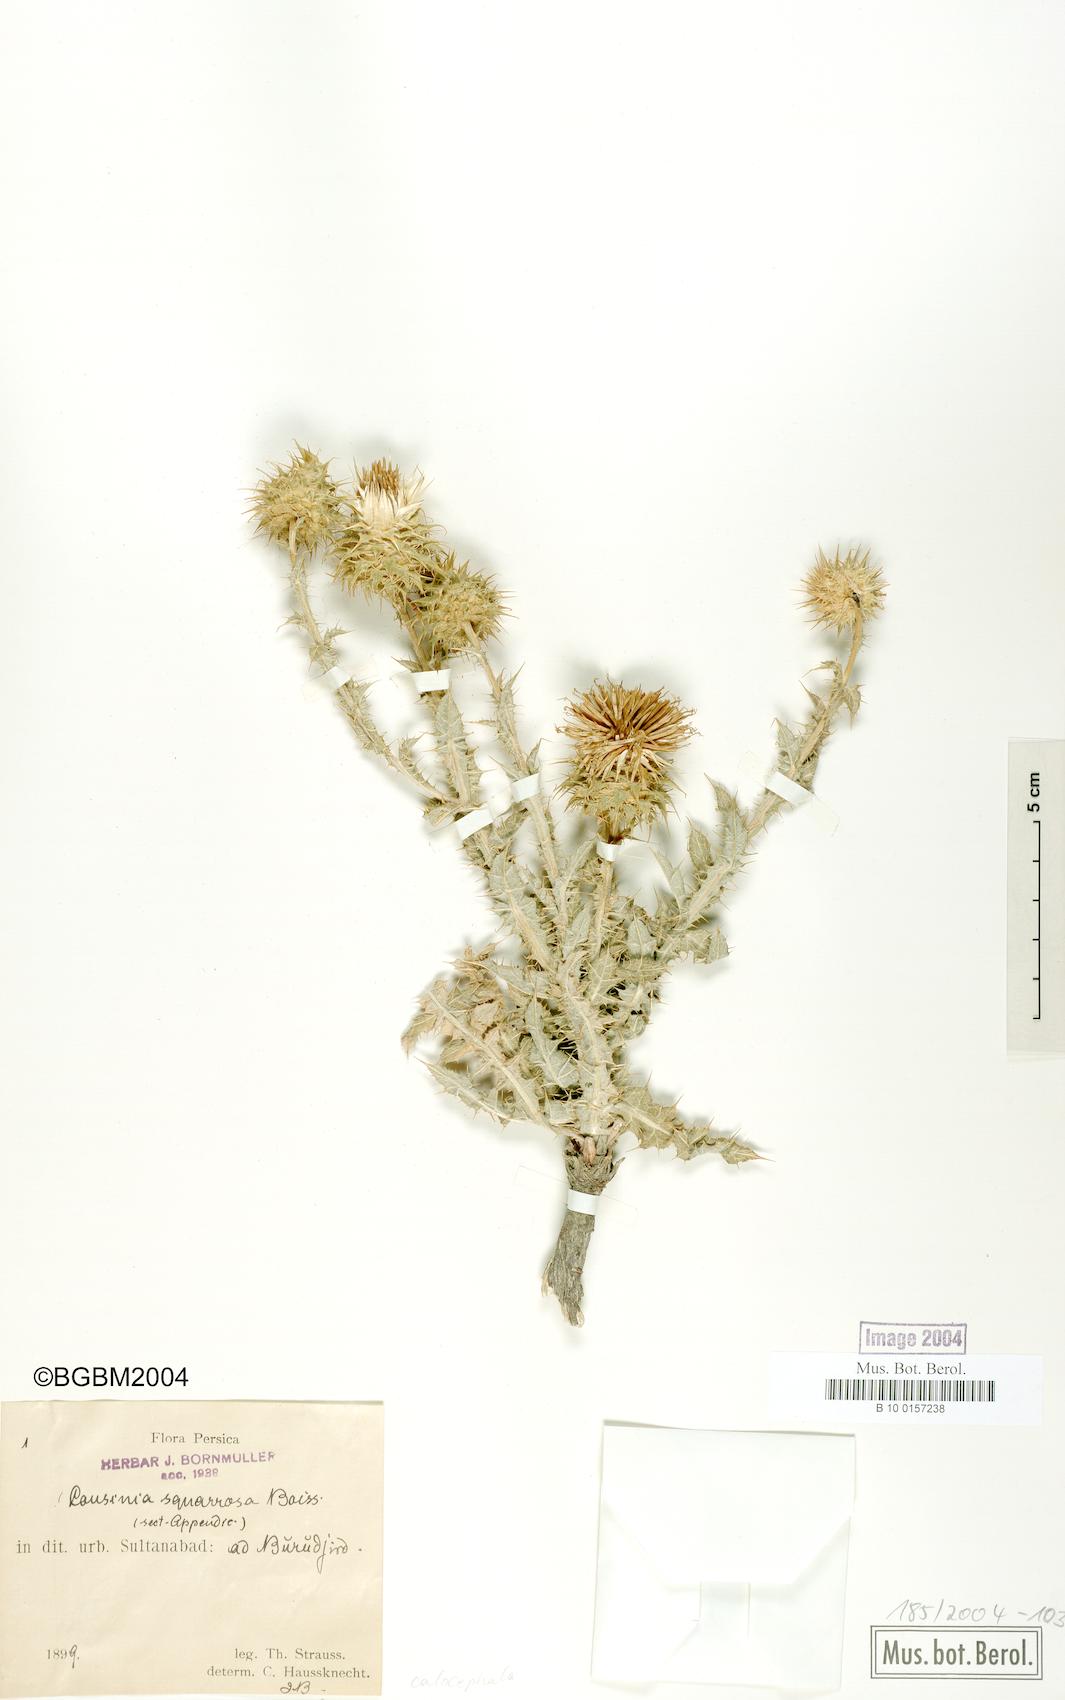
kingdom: Plantae
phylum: Tracheophyta
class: Magnoliopsida
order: Asterales
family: Asteraceae
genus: Cousinia
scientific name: Cousinia calocephala
